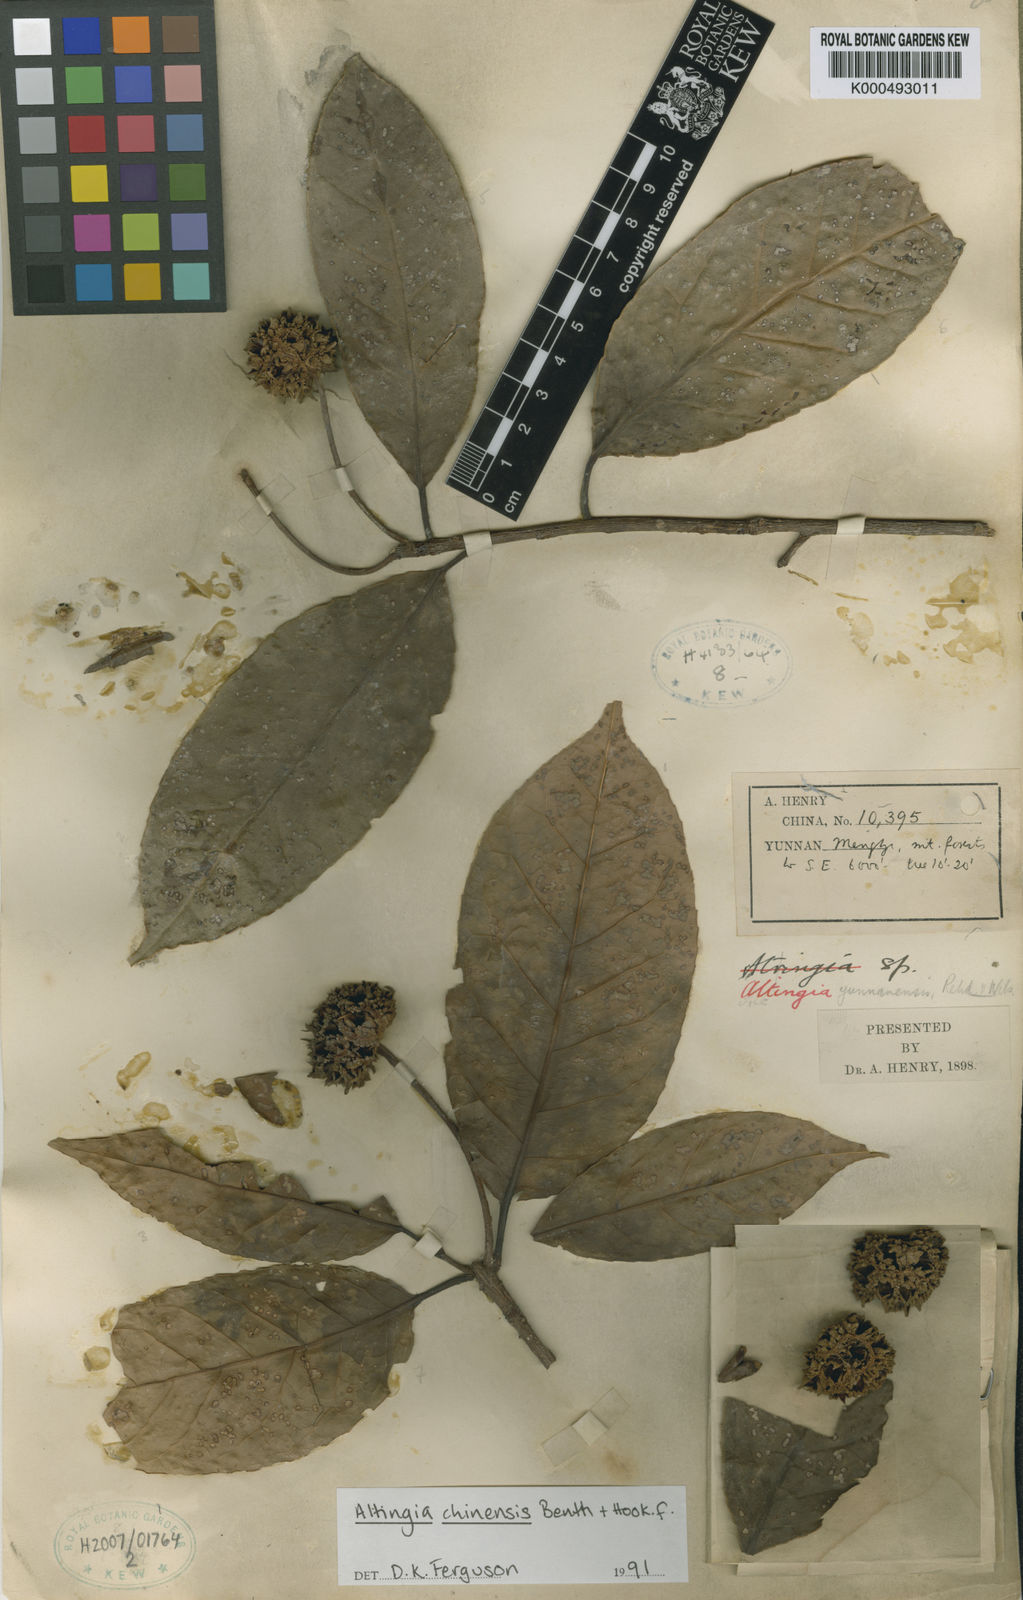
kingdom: Plantae
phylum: Tracheophyta
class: Magnoliopsida
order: Saxifragales
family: Altingiaceae
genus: Liquidambar
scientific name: Liquidambar
